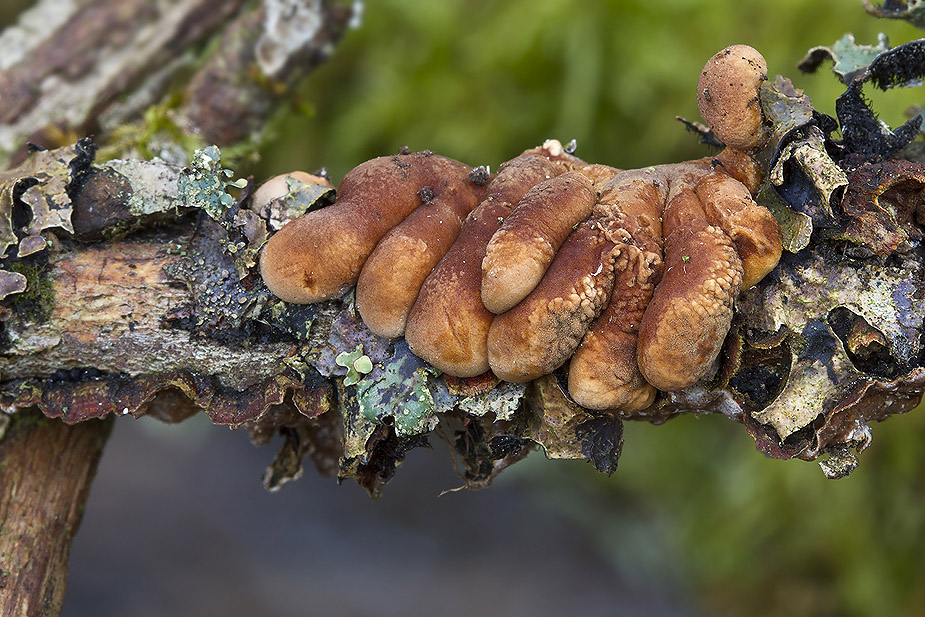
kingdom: Fungi
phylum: Ascomycota
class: Sordariomycetes
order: Hypocreales
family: Hypocreaceae
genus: Hypocreopsis
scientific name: Hypocreopsis lichenoides
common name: pilfinger
